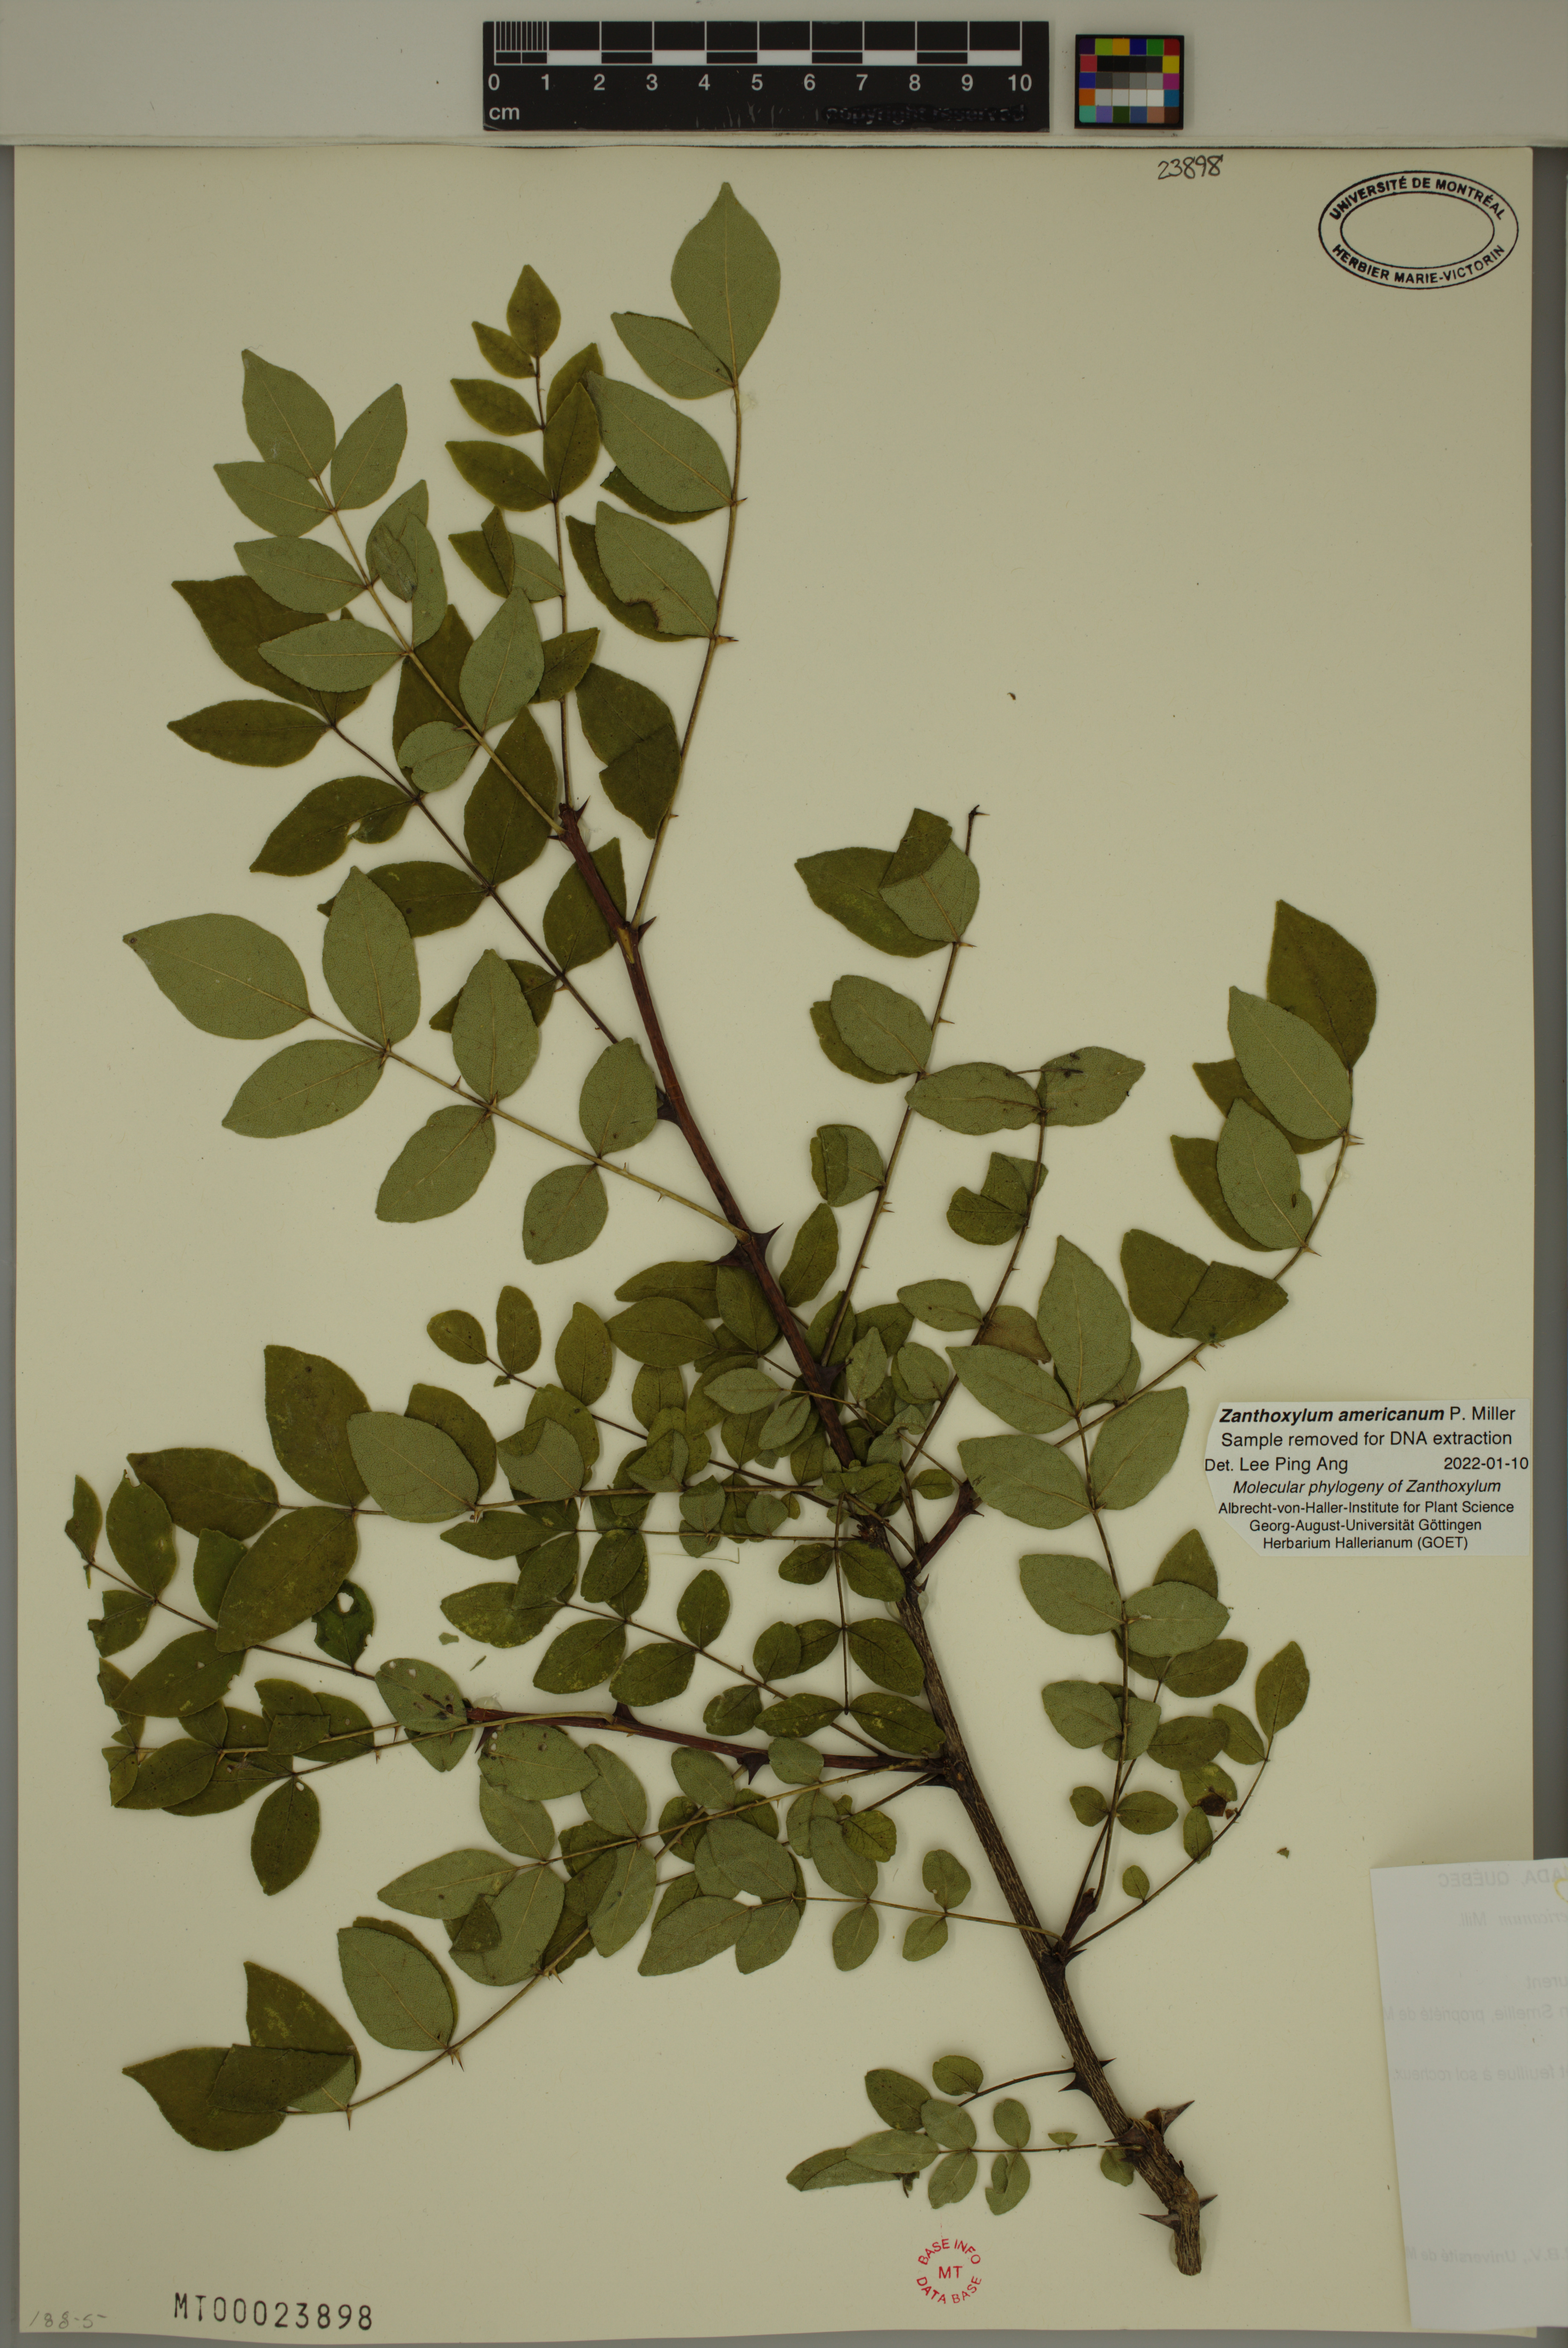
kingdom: Plantae
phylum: Tracheophyta
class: Magnoliopsida
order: Sapindales
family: Rutaceae
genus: Zanthoxylum
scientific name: Zanthoxylum americanum
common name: Northern prickly-ash
